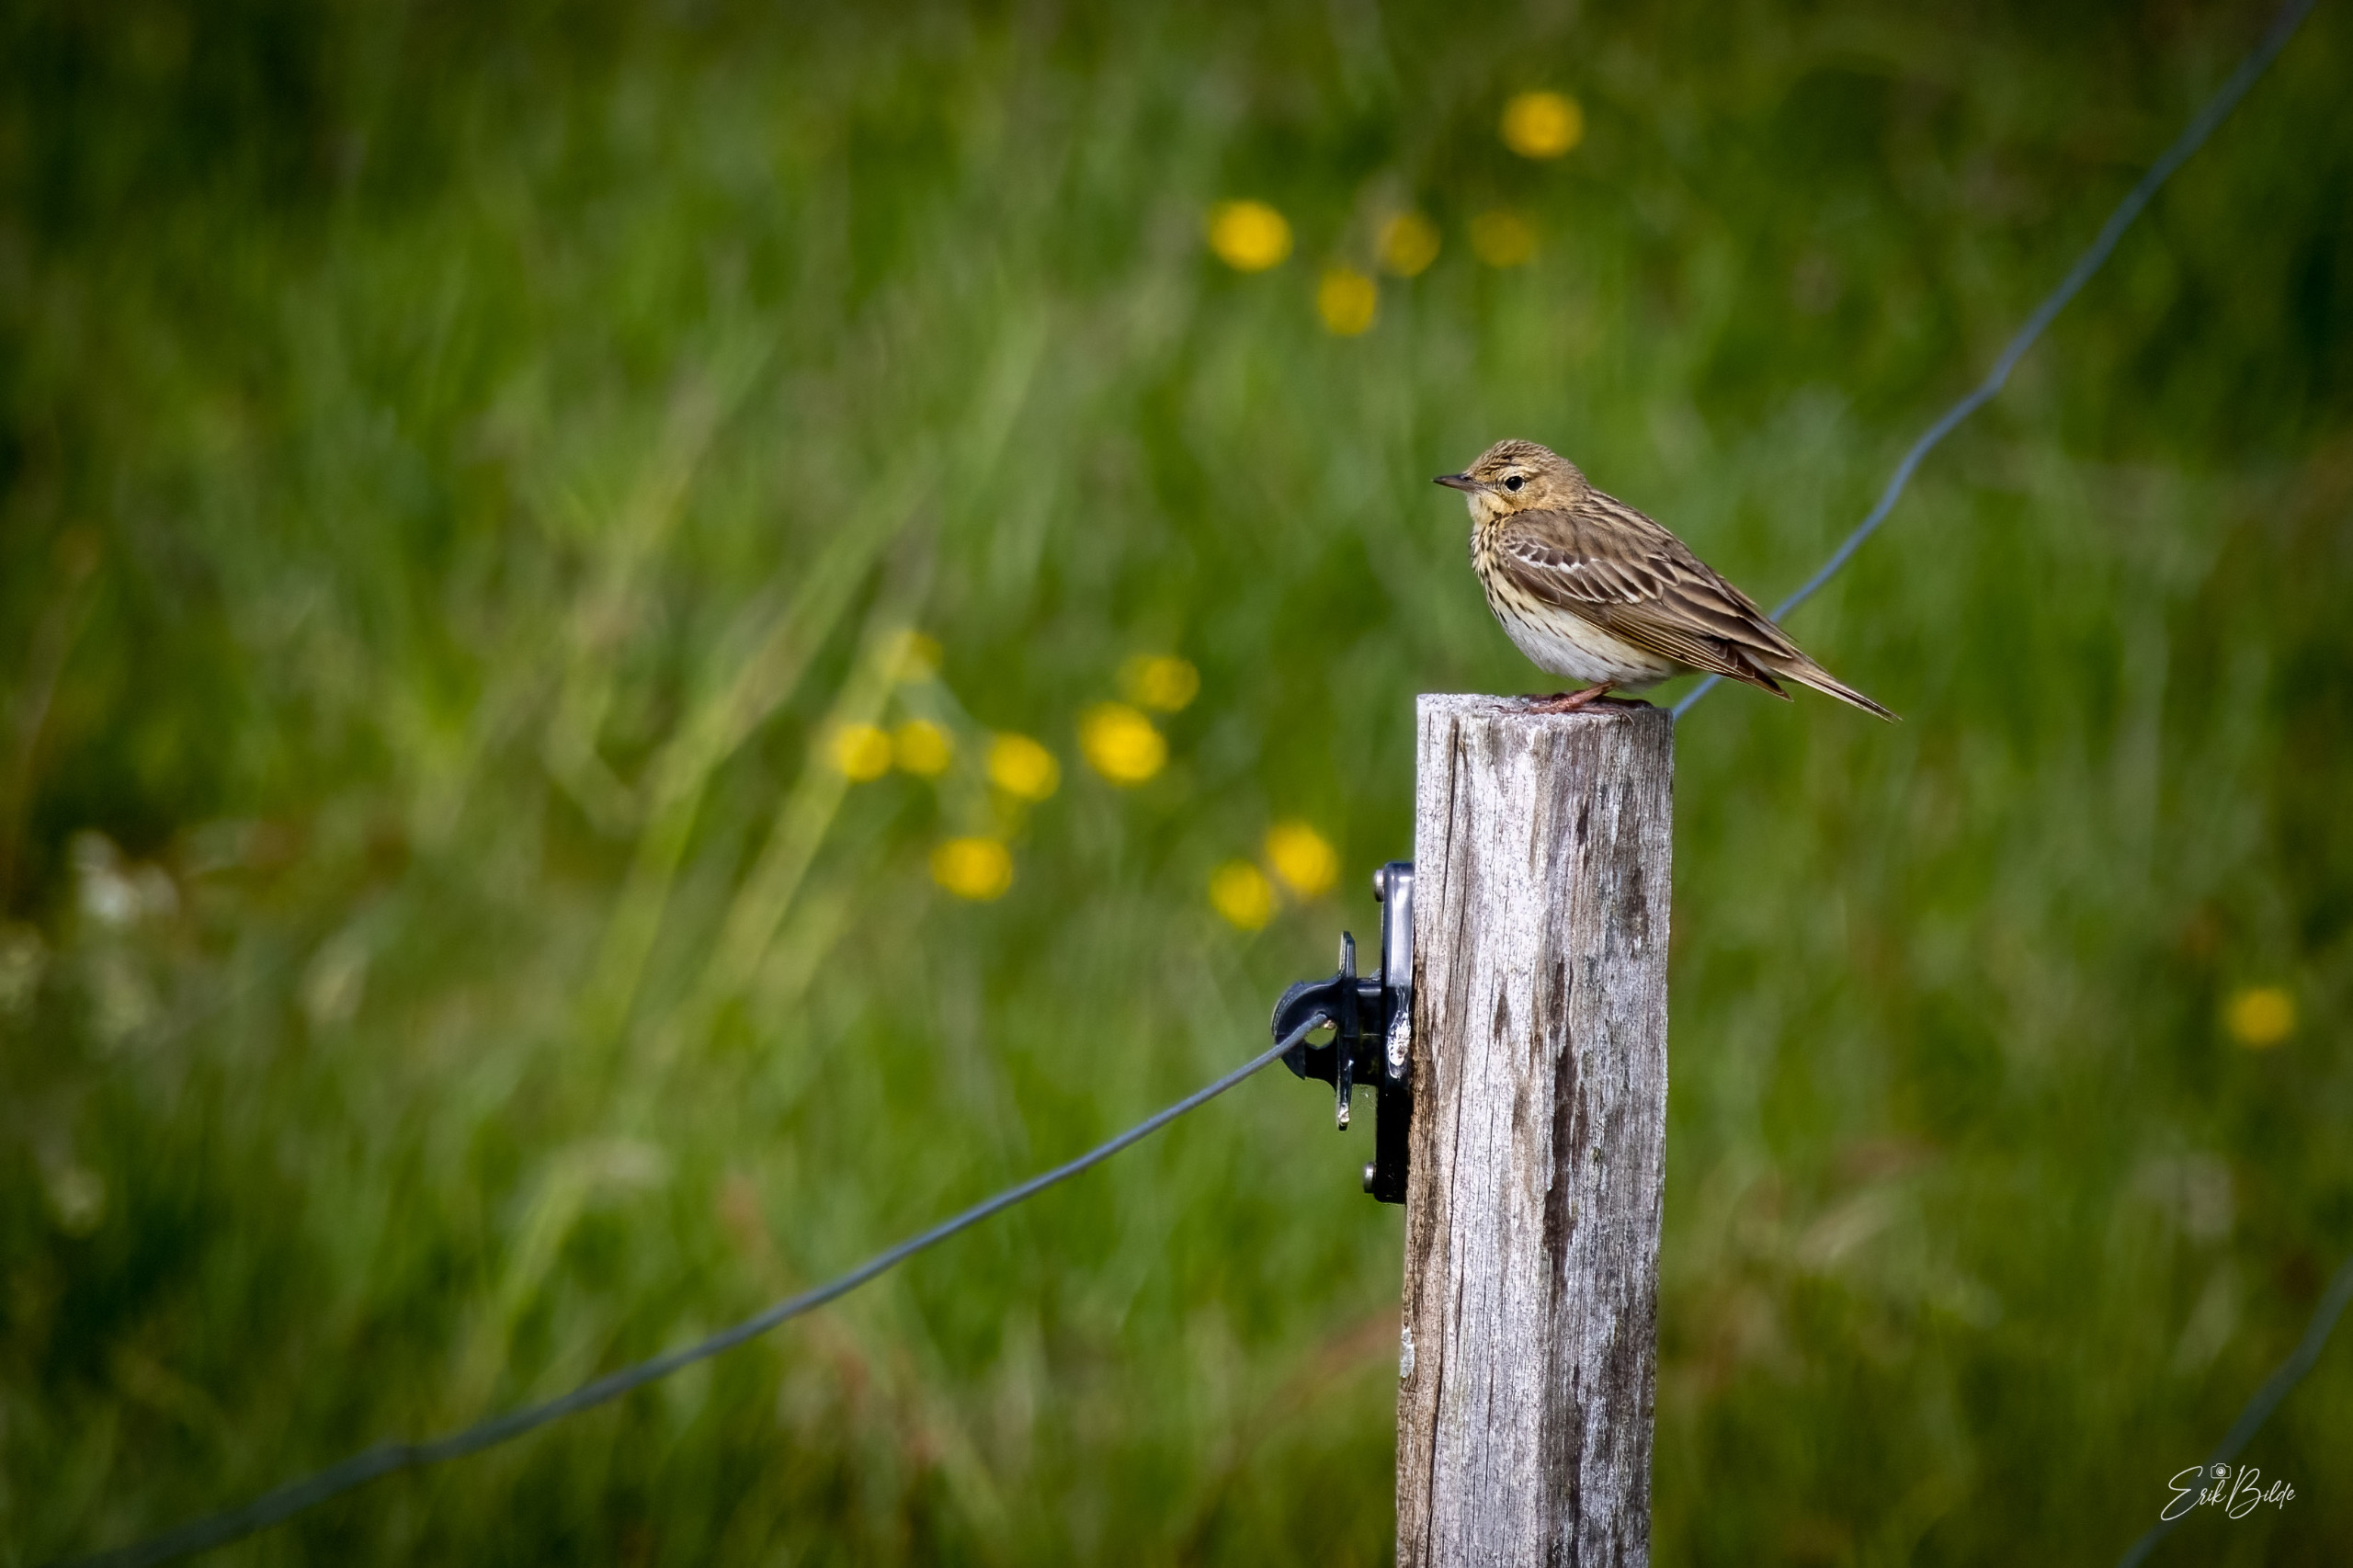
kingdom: Animalia
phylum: Chordata
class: Aves
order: Passeriformes
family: Alaudidae
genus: Alauda
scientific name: Alauda arvensis
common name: Sanglærke
